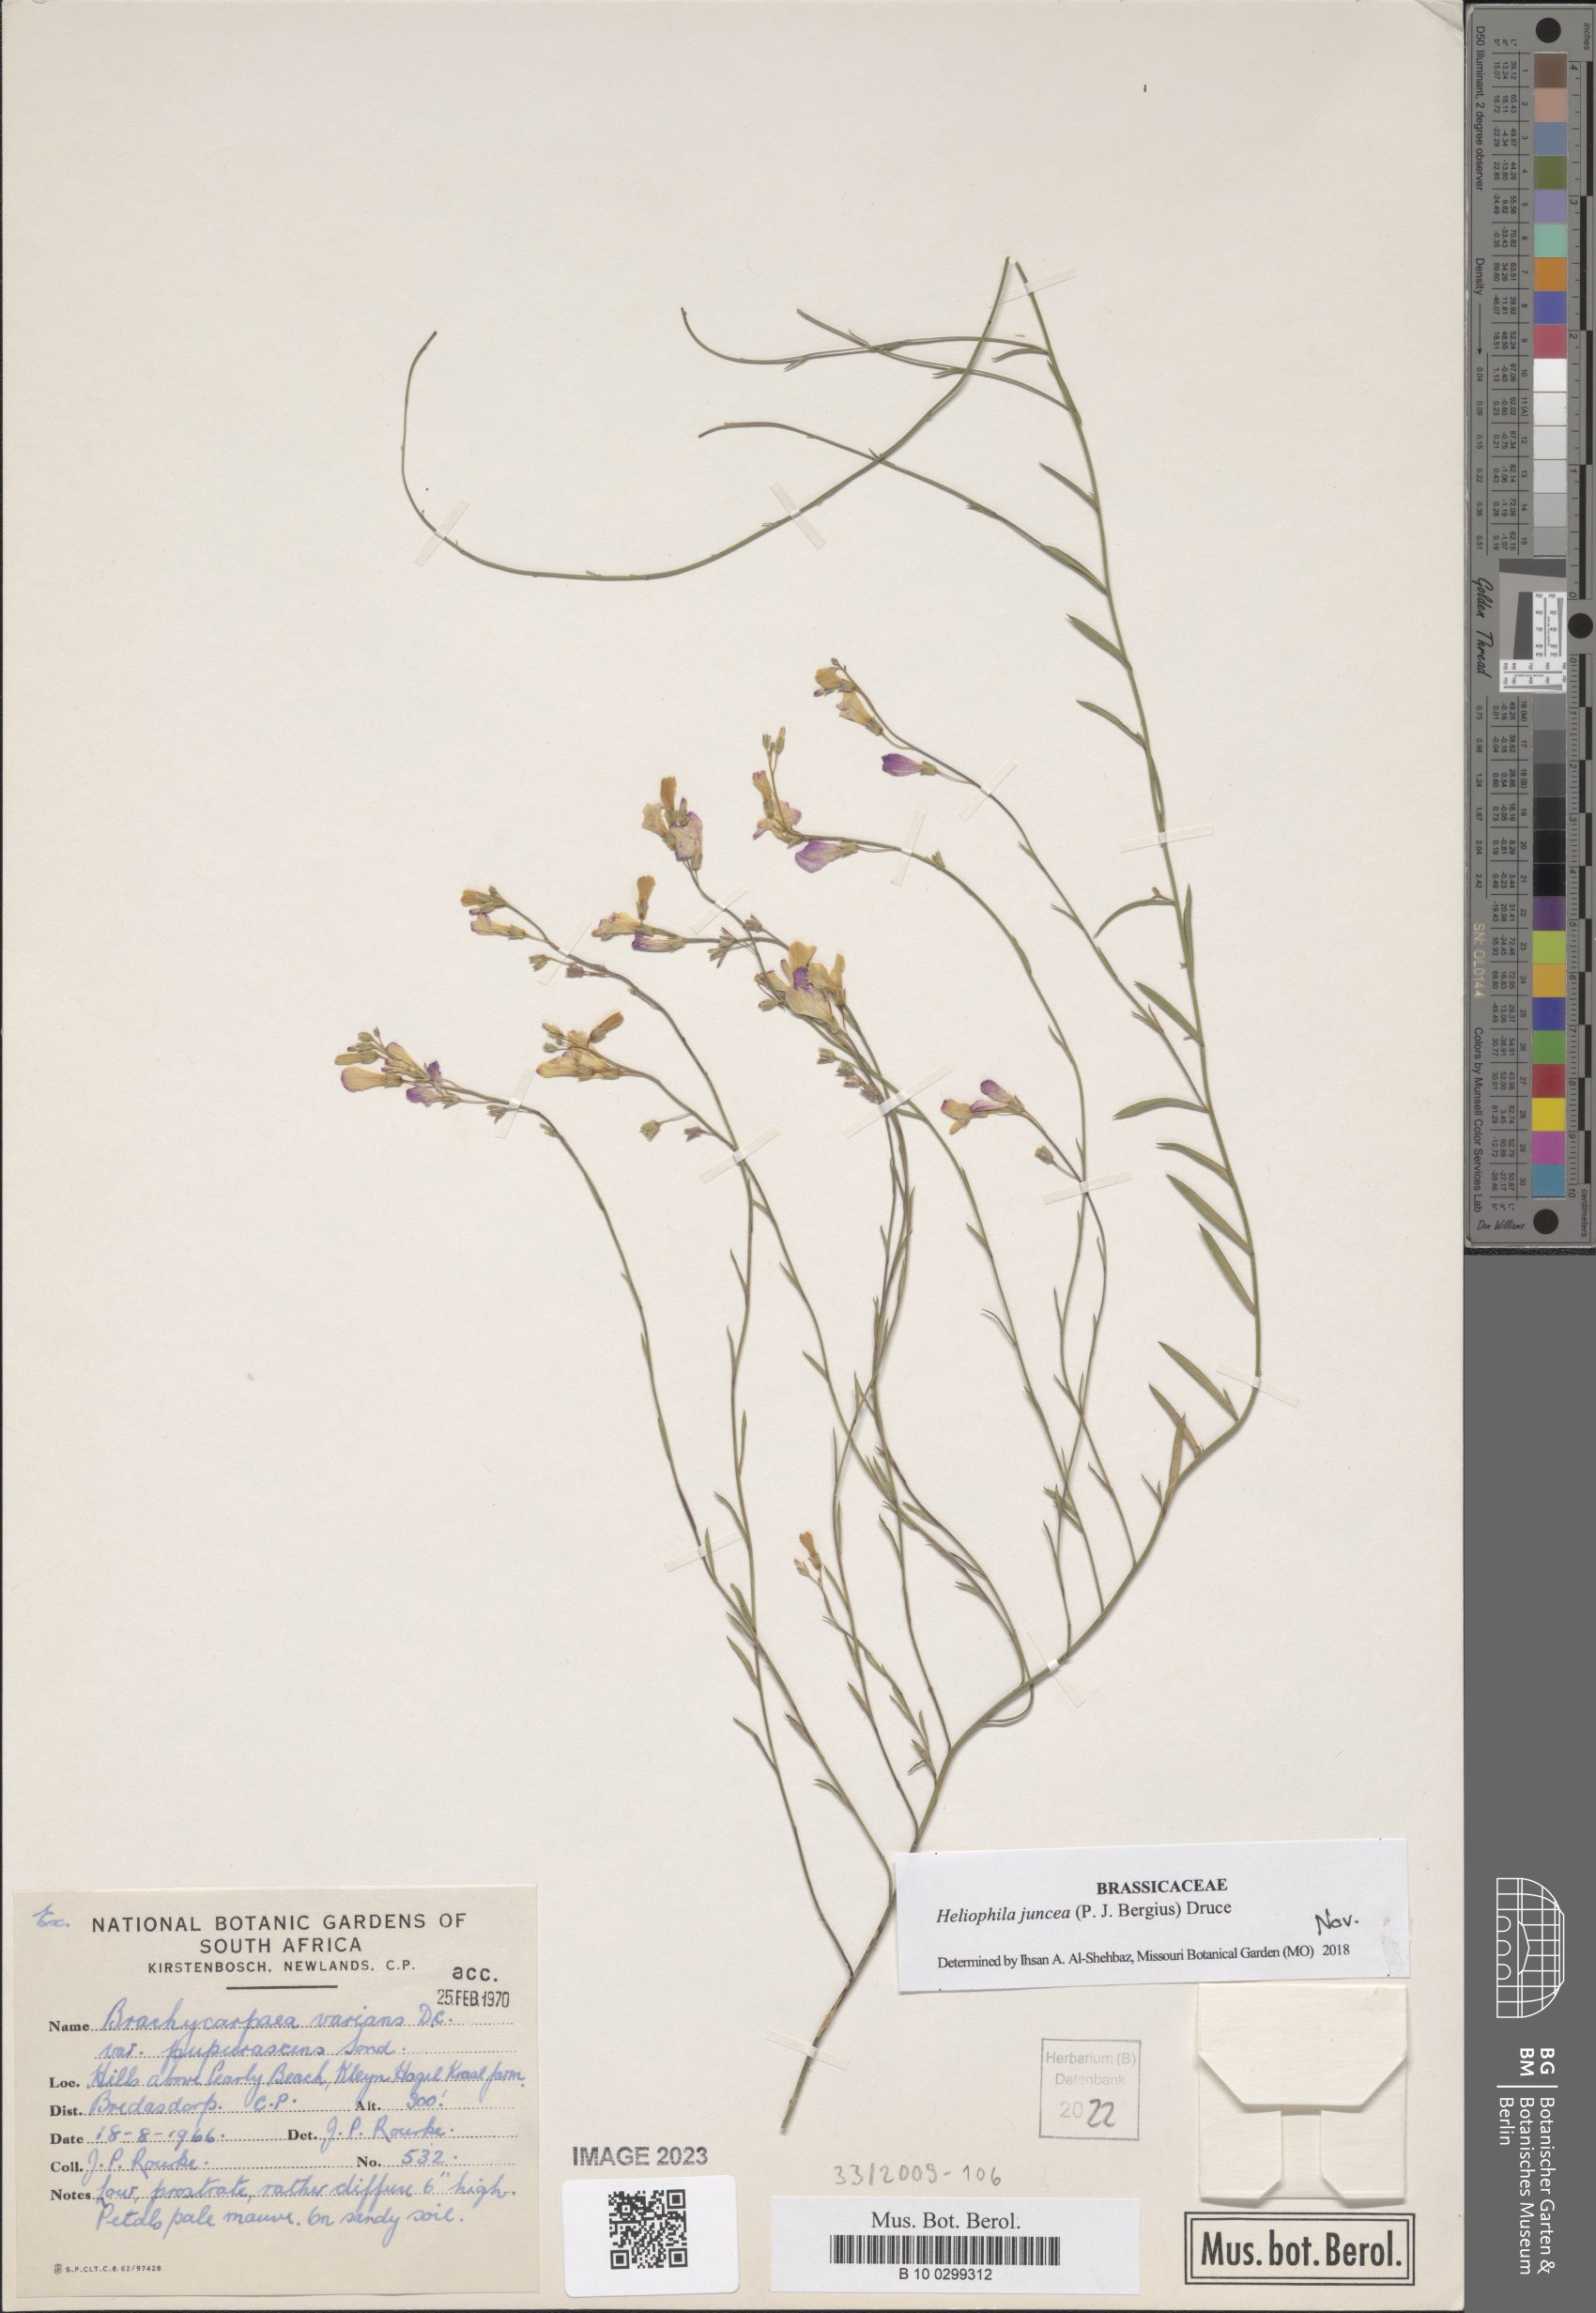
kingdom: Plantae
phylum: Tracheophyta
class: Magnoliopsida
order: Brassicales
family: Brassicaceae
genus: Heliophila
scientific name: Heliophila juncea
